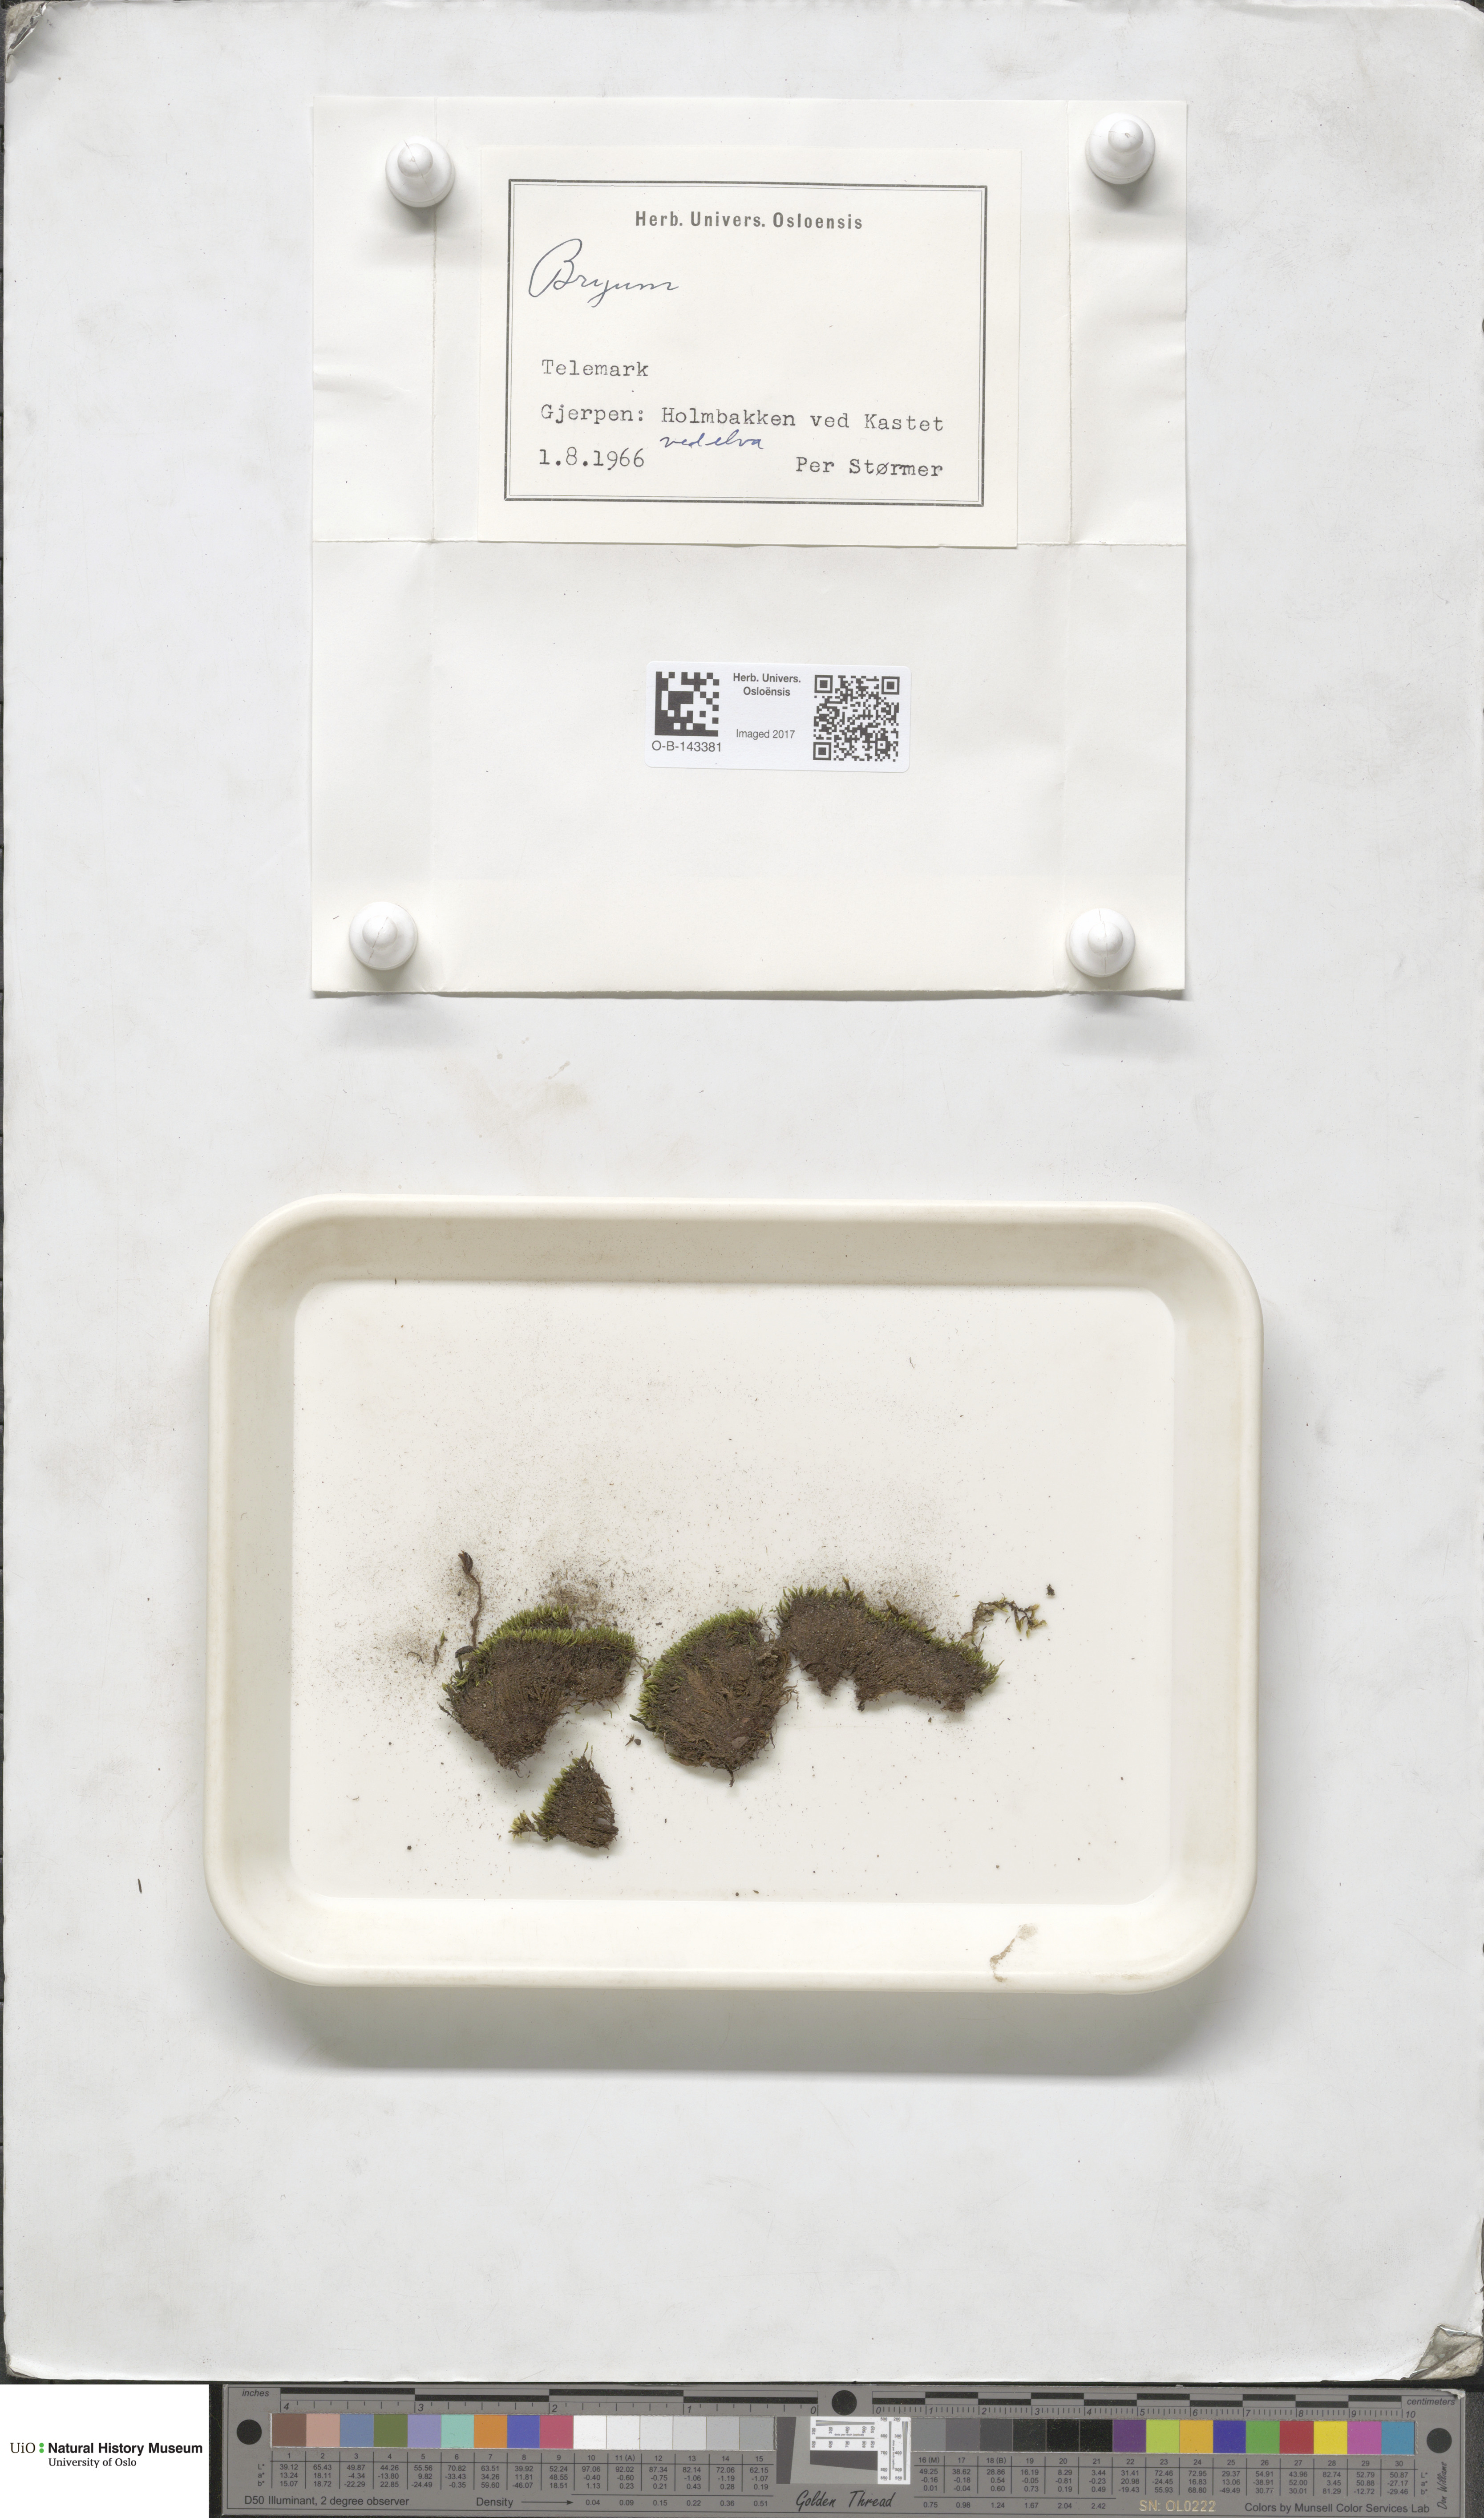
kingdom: Plantae
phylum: Bryophyta
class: Bryopsida
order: Bryales
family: Bryaceae
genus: Bryum
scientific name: Bryum
